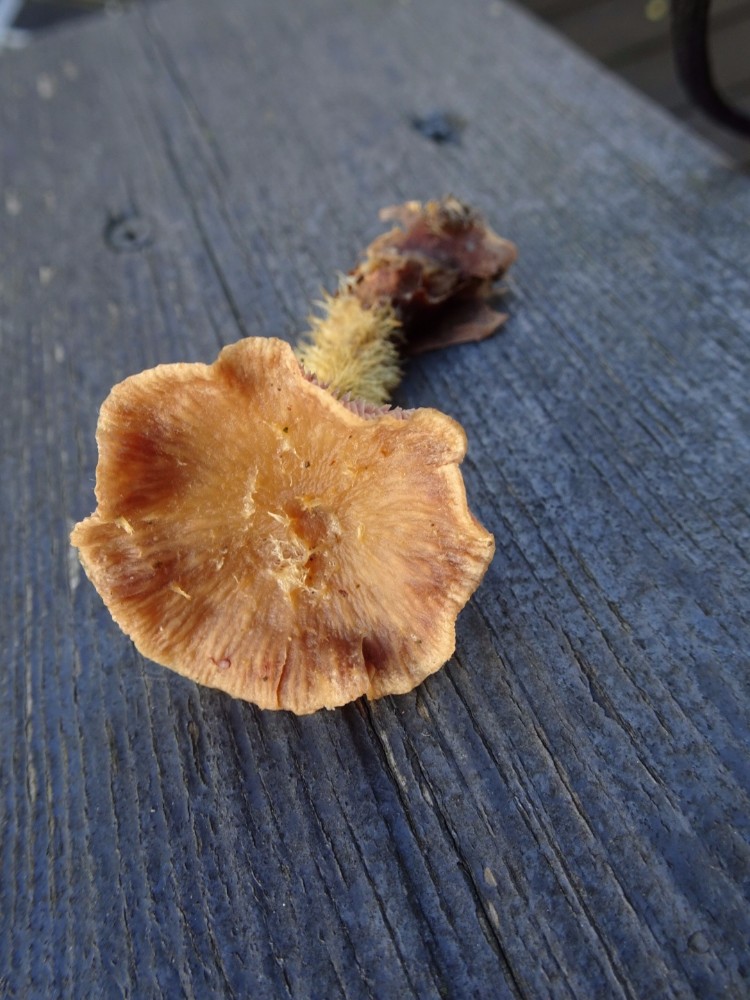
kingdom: Fungi
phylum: Basidiomycota
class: Agaricomycetes
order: Agaricales
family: Omphalotaceae
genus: Gymnopus
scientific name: Gymnopus fuscopurpureus
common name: purpurbrun fladhat
